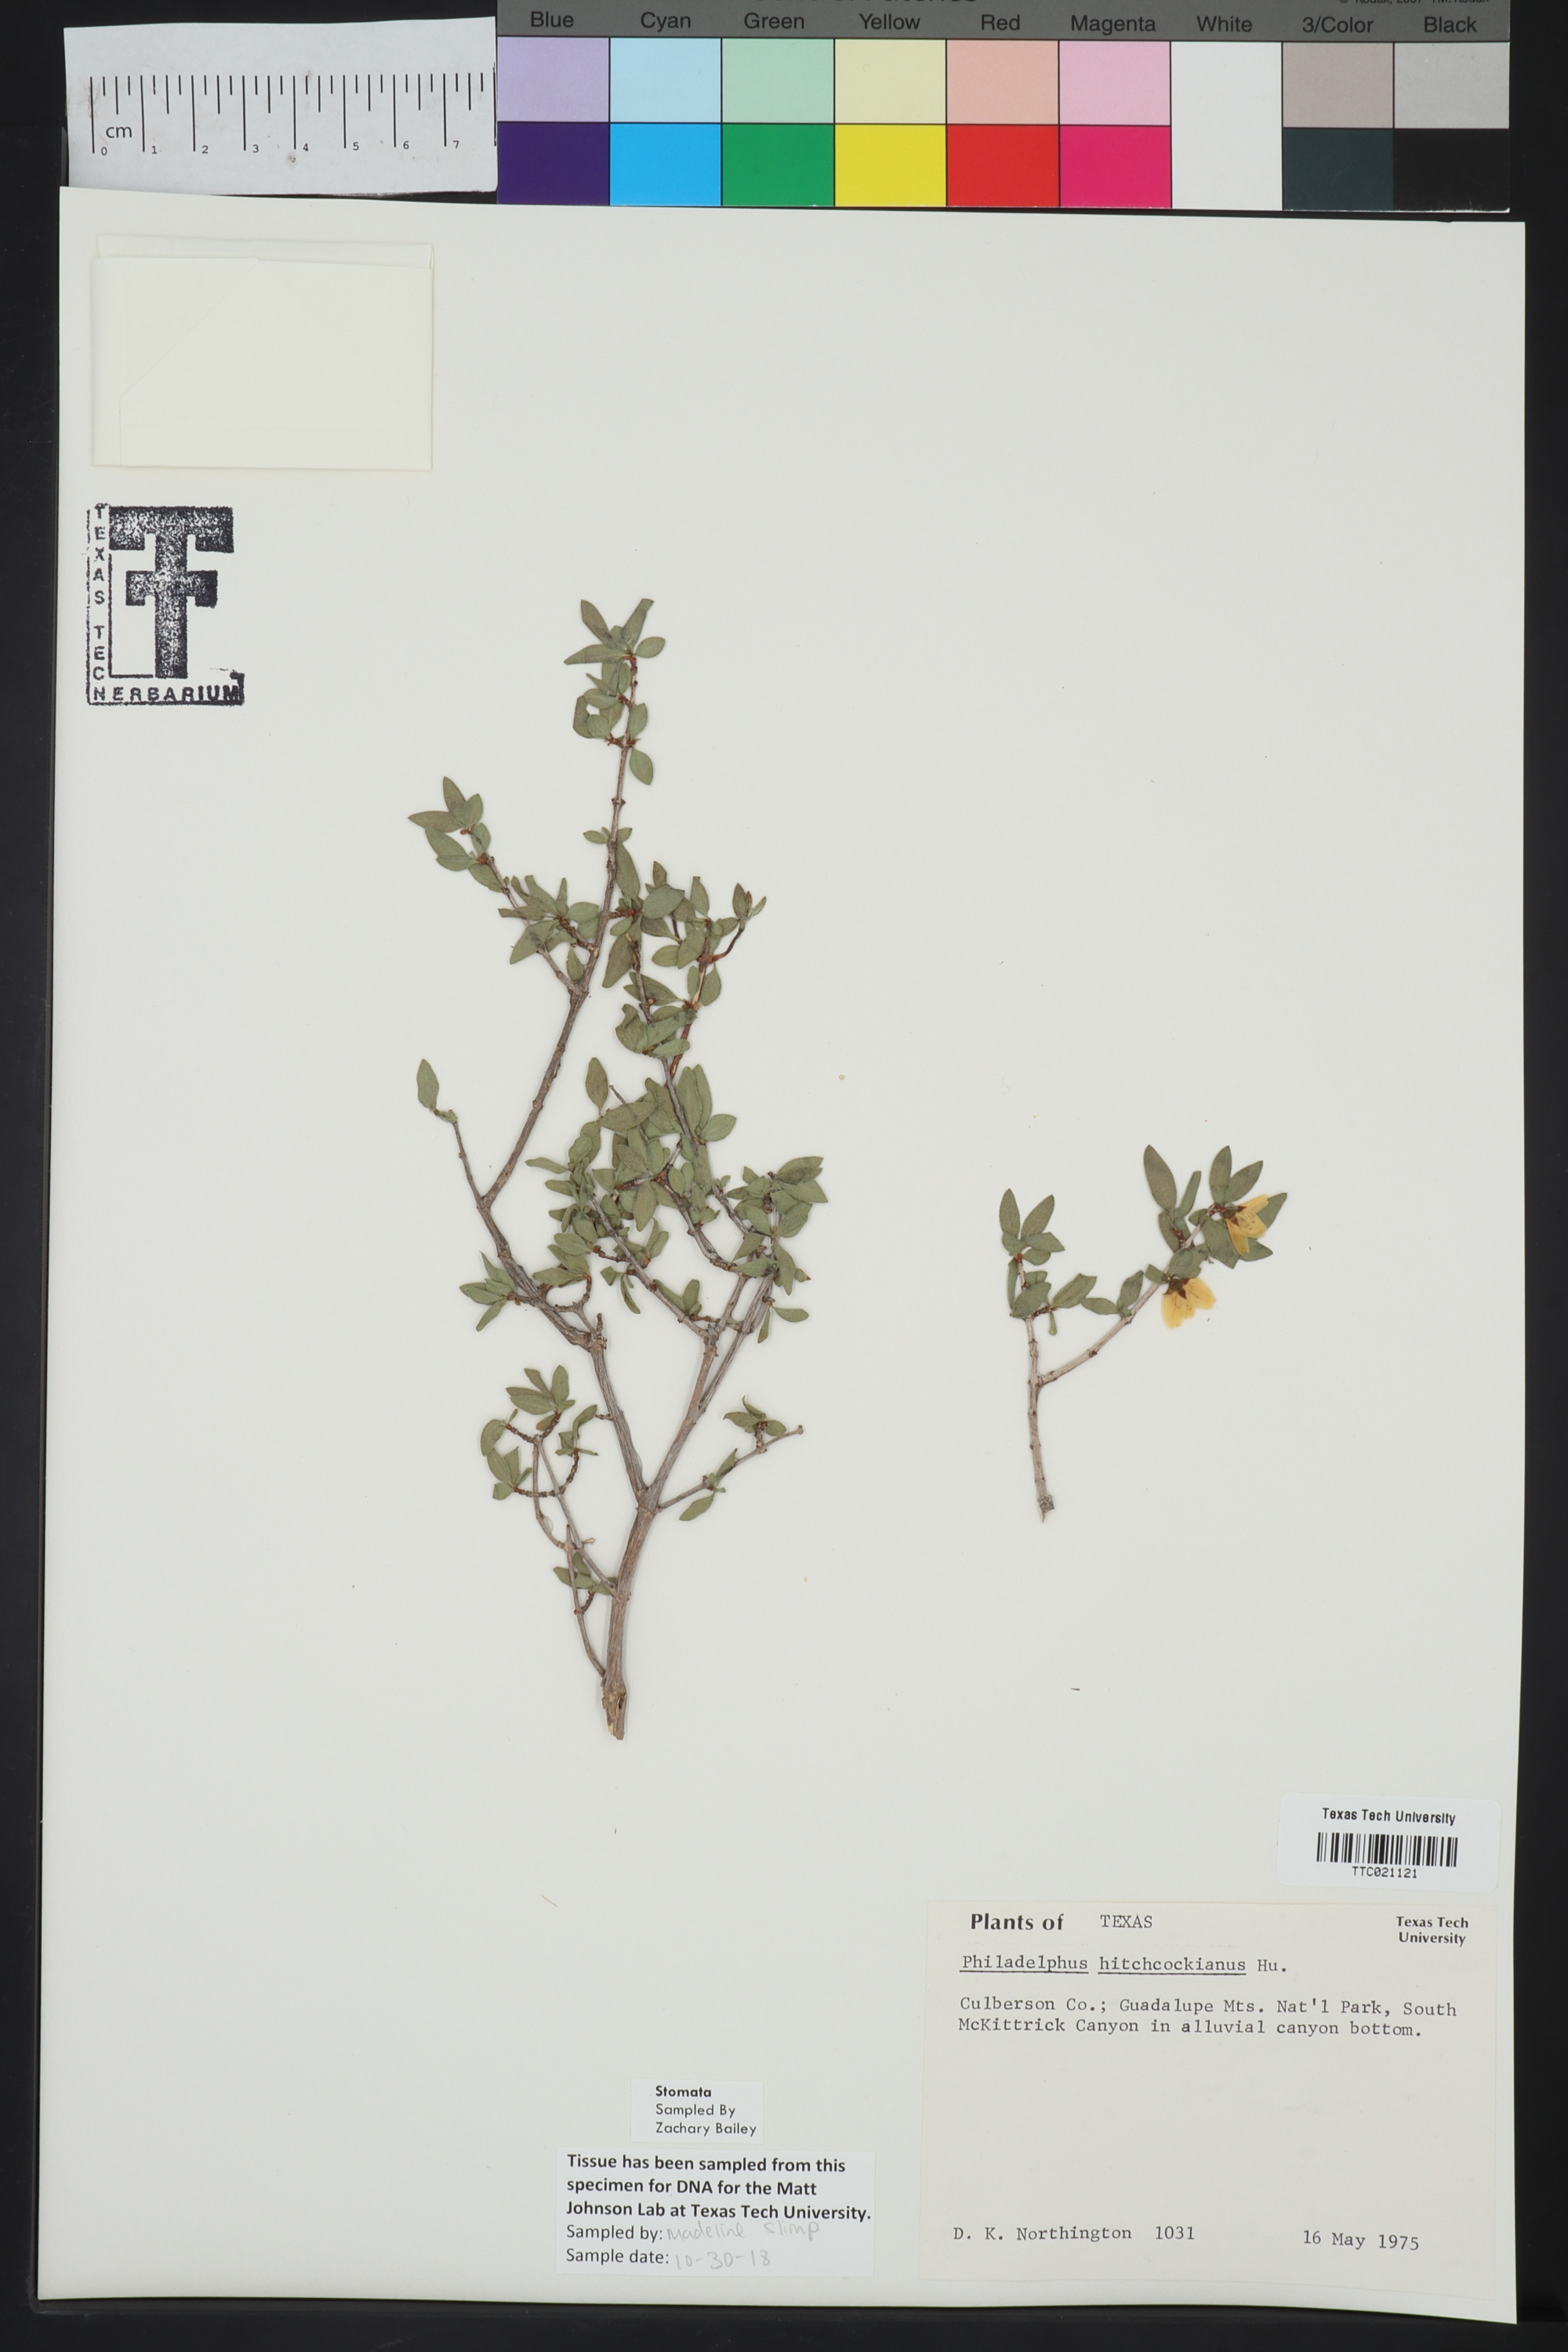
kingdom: Plantae
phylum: Tracheophyta
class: Magnoliopsida
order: Cornales
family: Hydrangeaceae
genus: Philadelphus
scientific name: Philadelphus mearnsii
